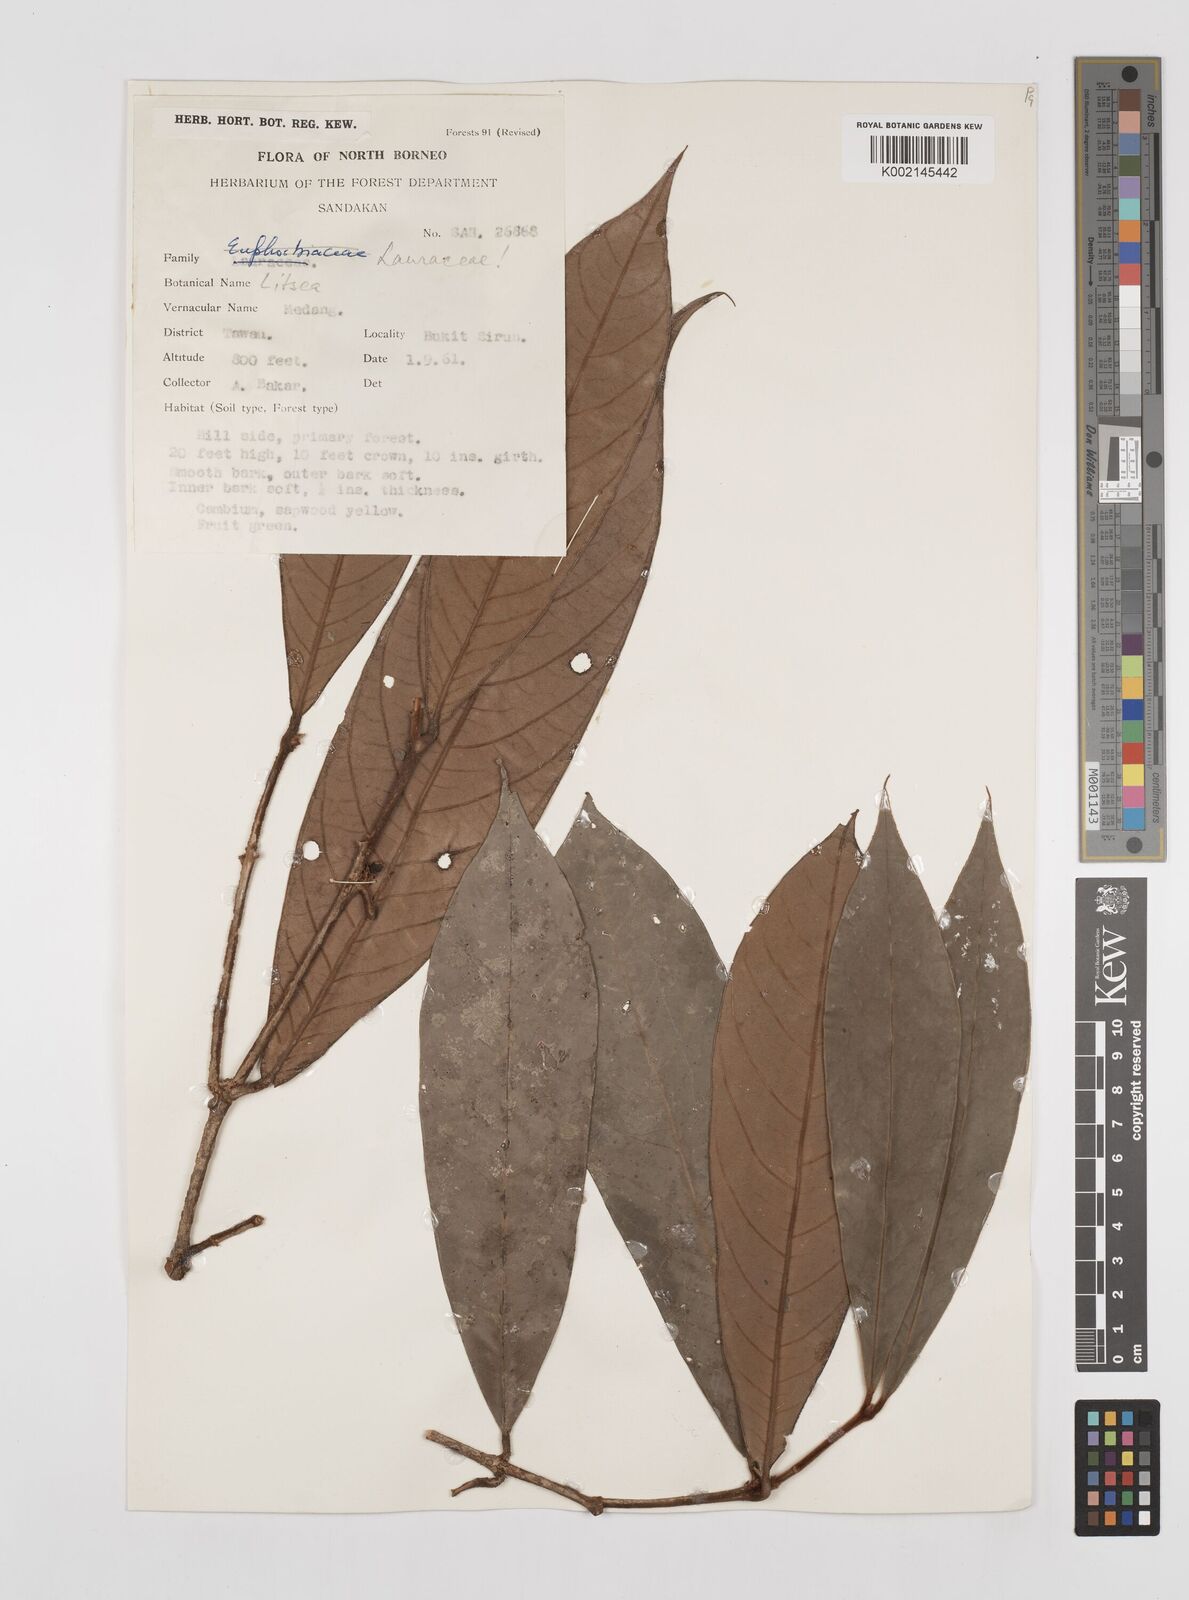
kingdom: Plantae
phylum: Tracheophyta
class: Magnoliopsida
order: Laurales
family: Lauraceae
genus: Litsea
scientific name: Litsea
